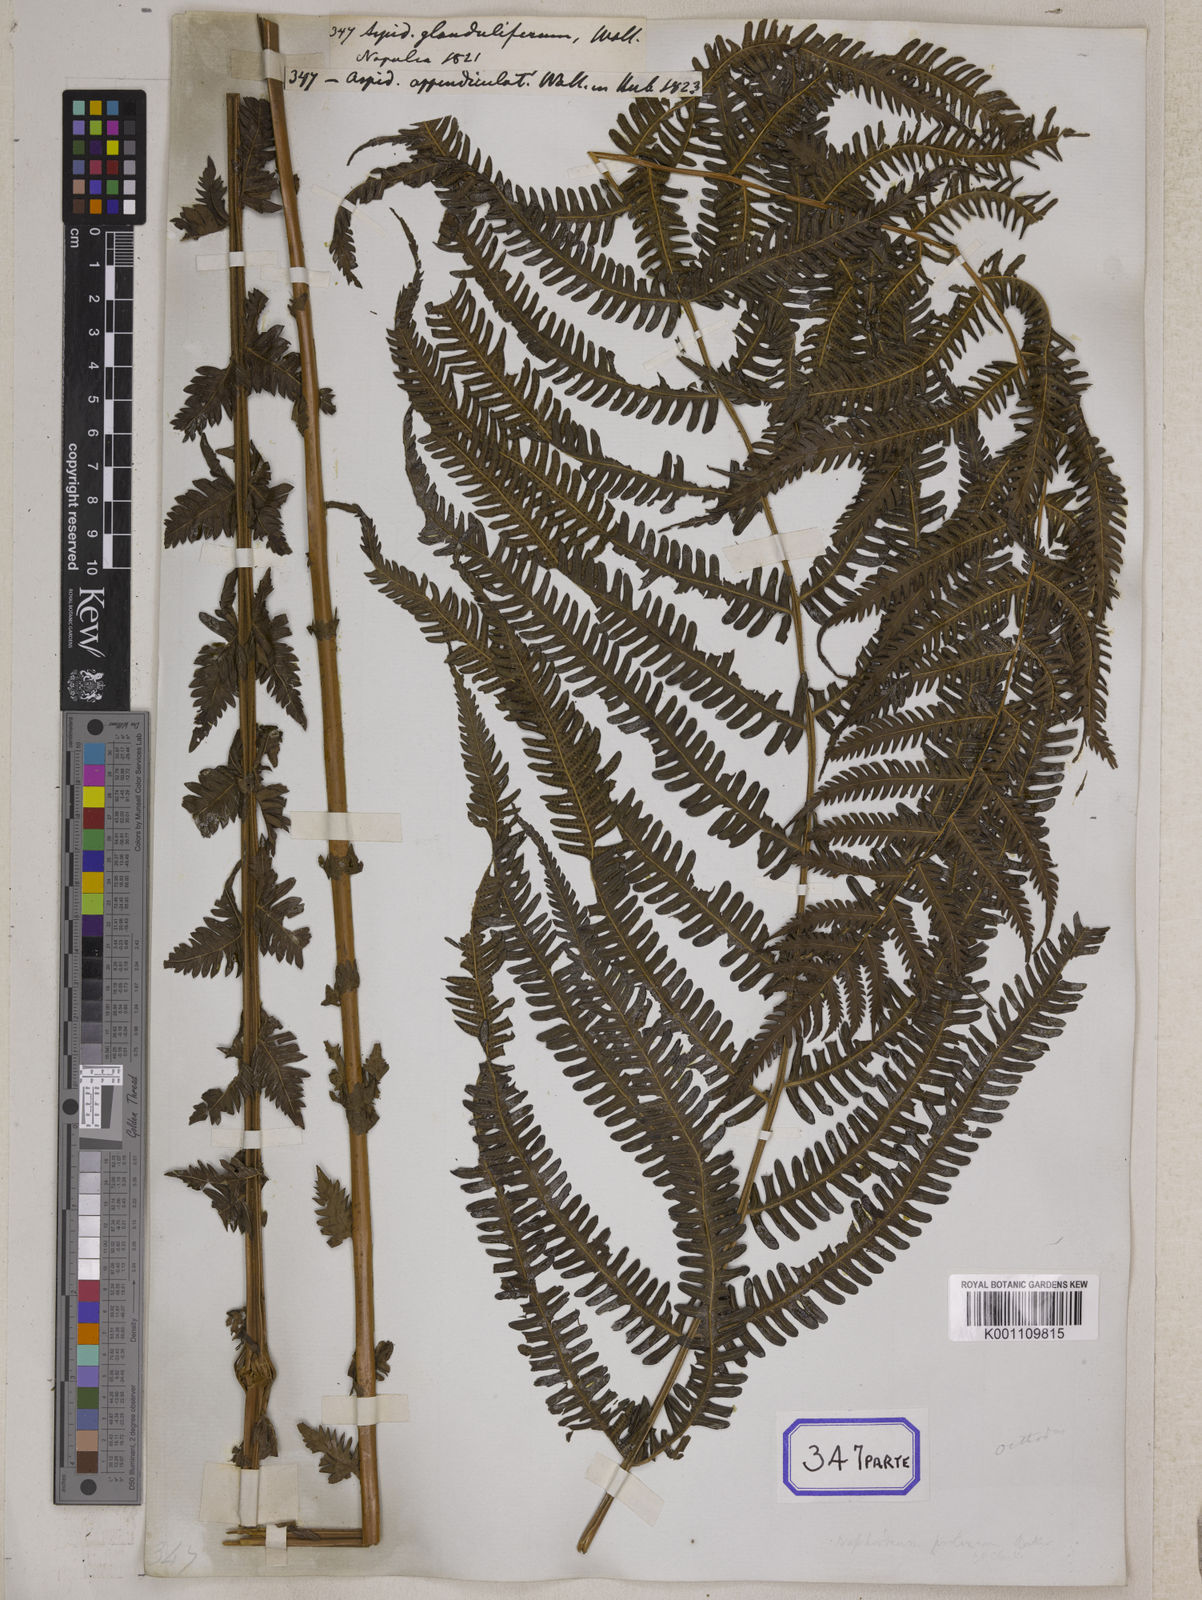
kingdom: Plantae
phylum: Tracheophyta
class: Polypodiopsida
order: Polypodiales
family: Thelypteridaceae
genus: Glaphyropteridopsis
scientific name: Glaphyropteridopsis erubescens
